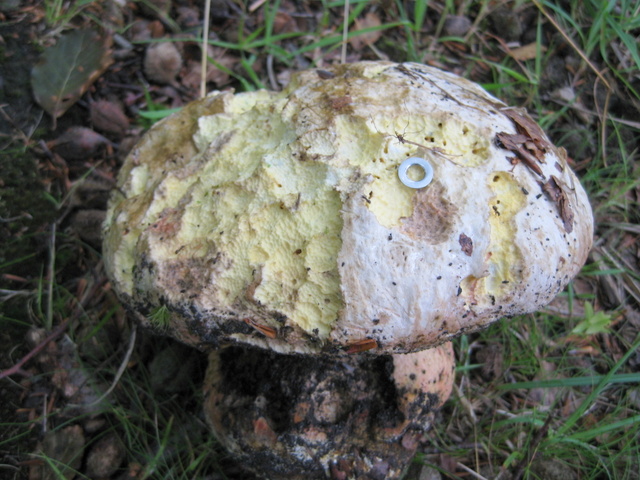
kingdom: Fungi
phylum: Basidiomycota
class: Agaricomycetes
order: Boletales
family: Boletaceae
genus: Rubroboletus
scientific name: Rubroboletus satanas
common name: Satans rørhat
